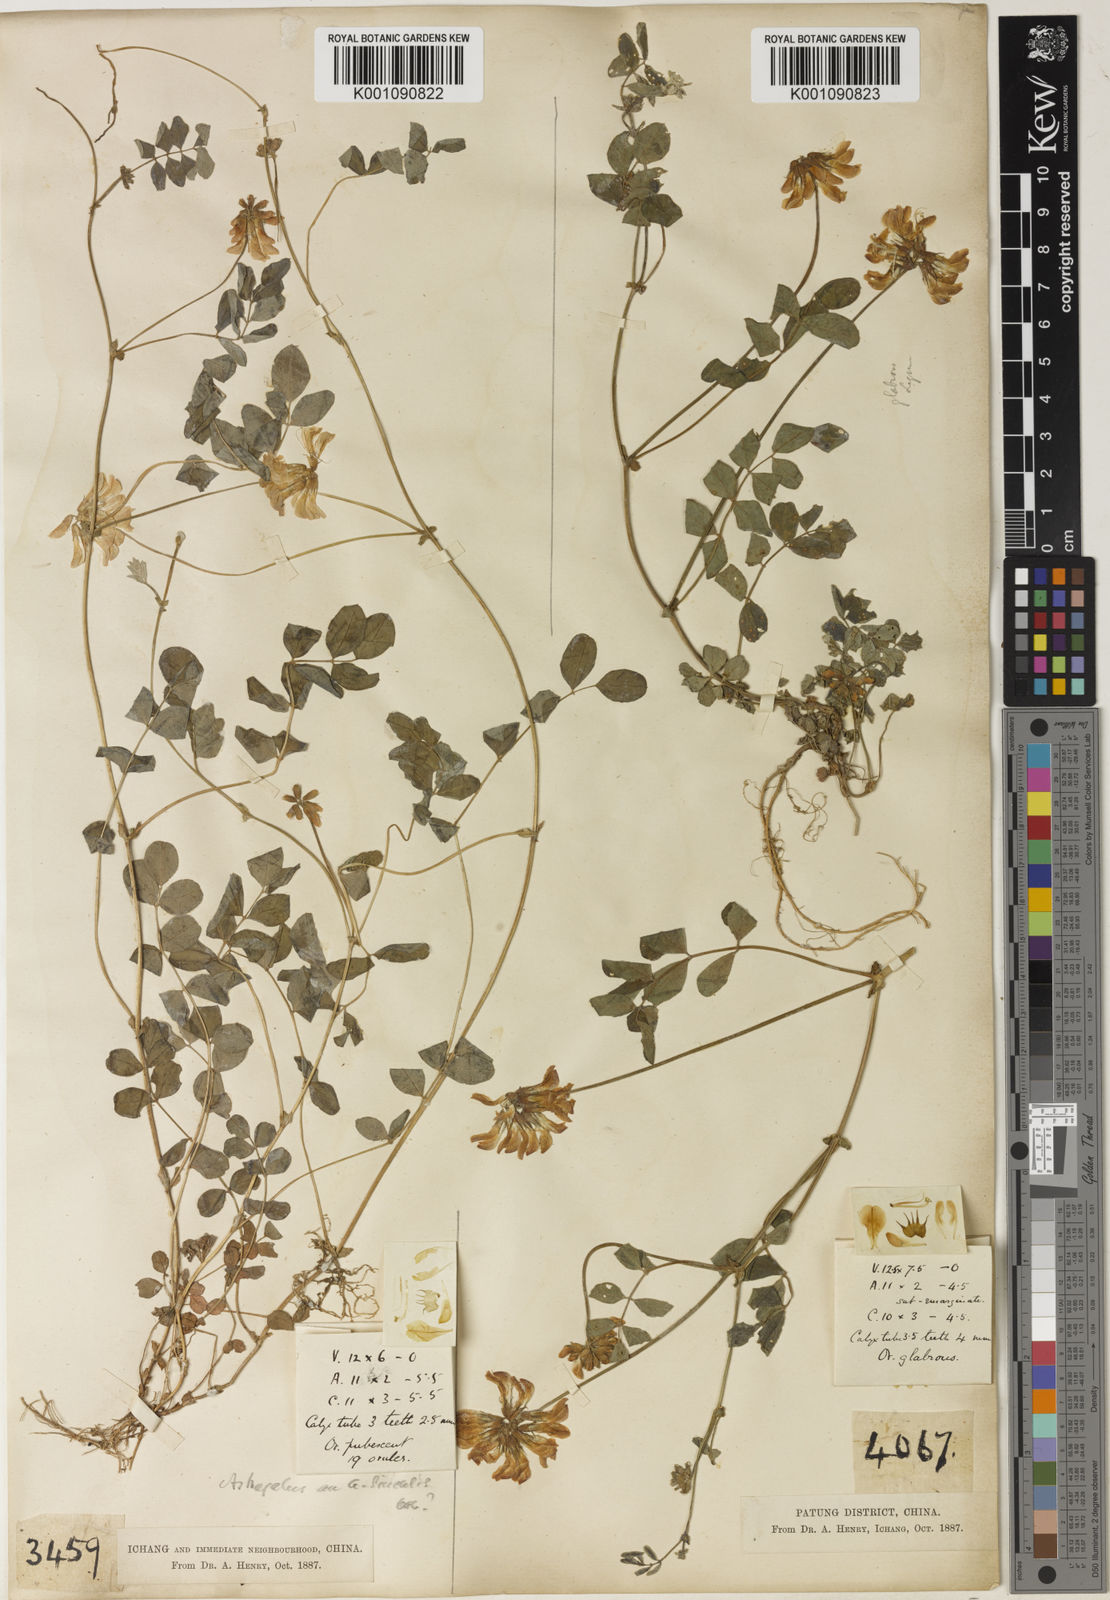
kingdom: Plantae
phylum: Tracheophyta
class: Magnoliopsida
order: Fabales
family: Fabaceae
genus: Astragalus
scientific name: Astragalus sinicus
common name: Chinese milk-vetch
